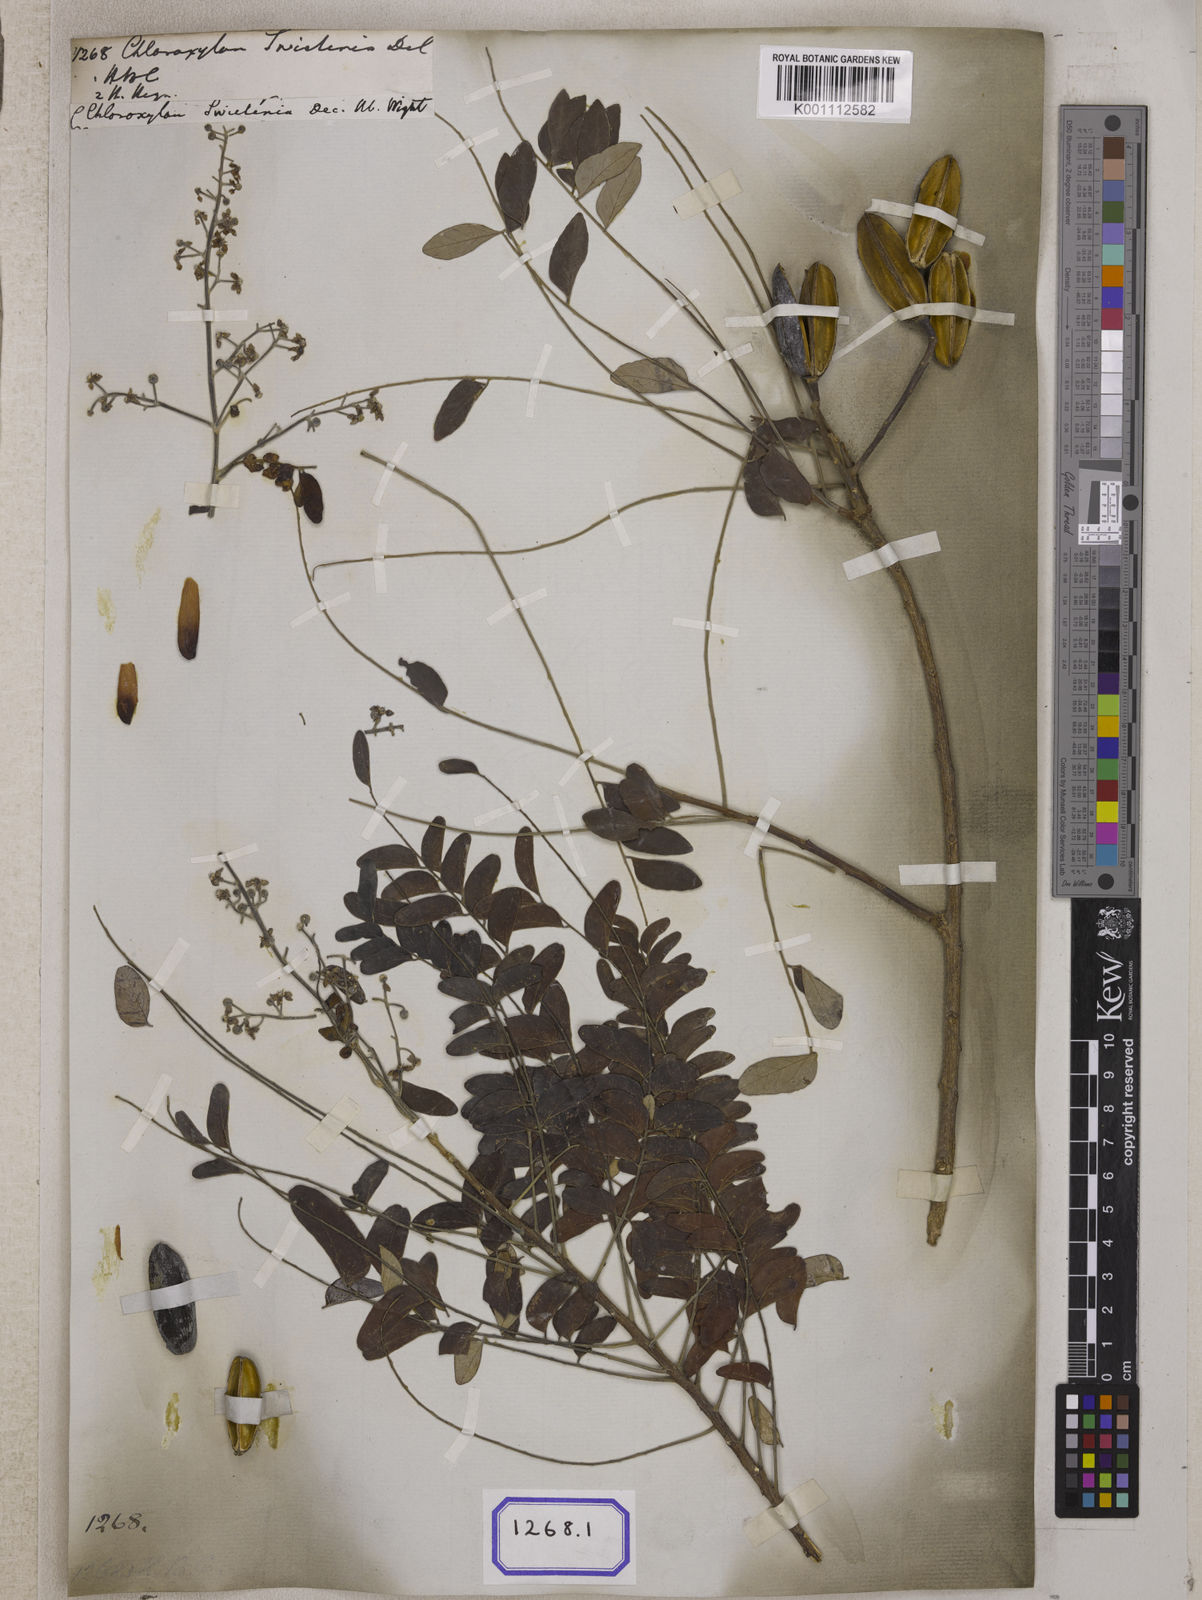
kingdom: Plantae
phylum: Tracheophyta
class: Magnoliopsida
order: Sapindales
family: Rutaceae
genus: Chloroxylon
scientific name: Chloroxylon swietenia
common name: East indian satinwood
